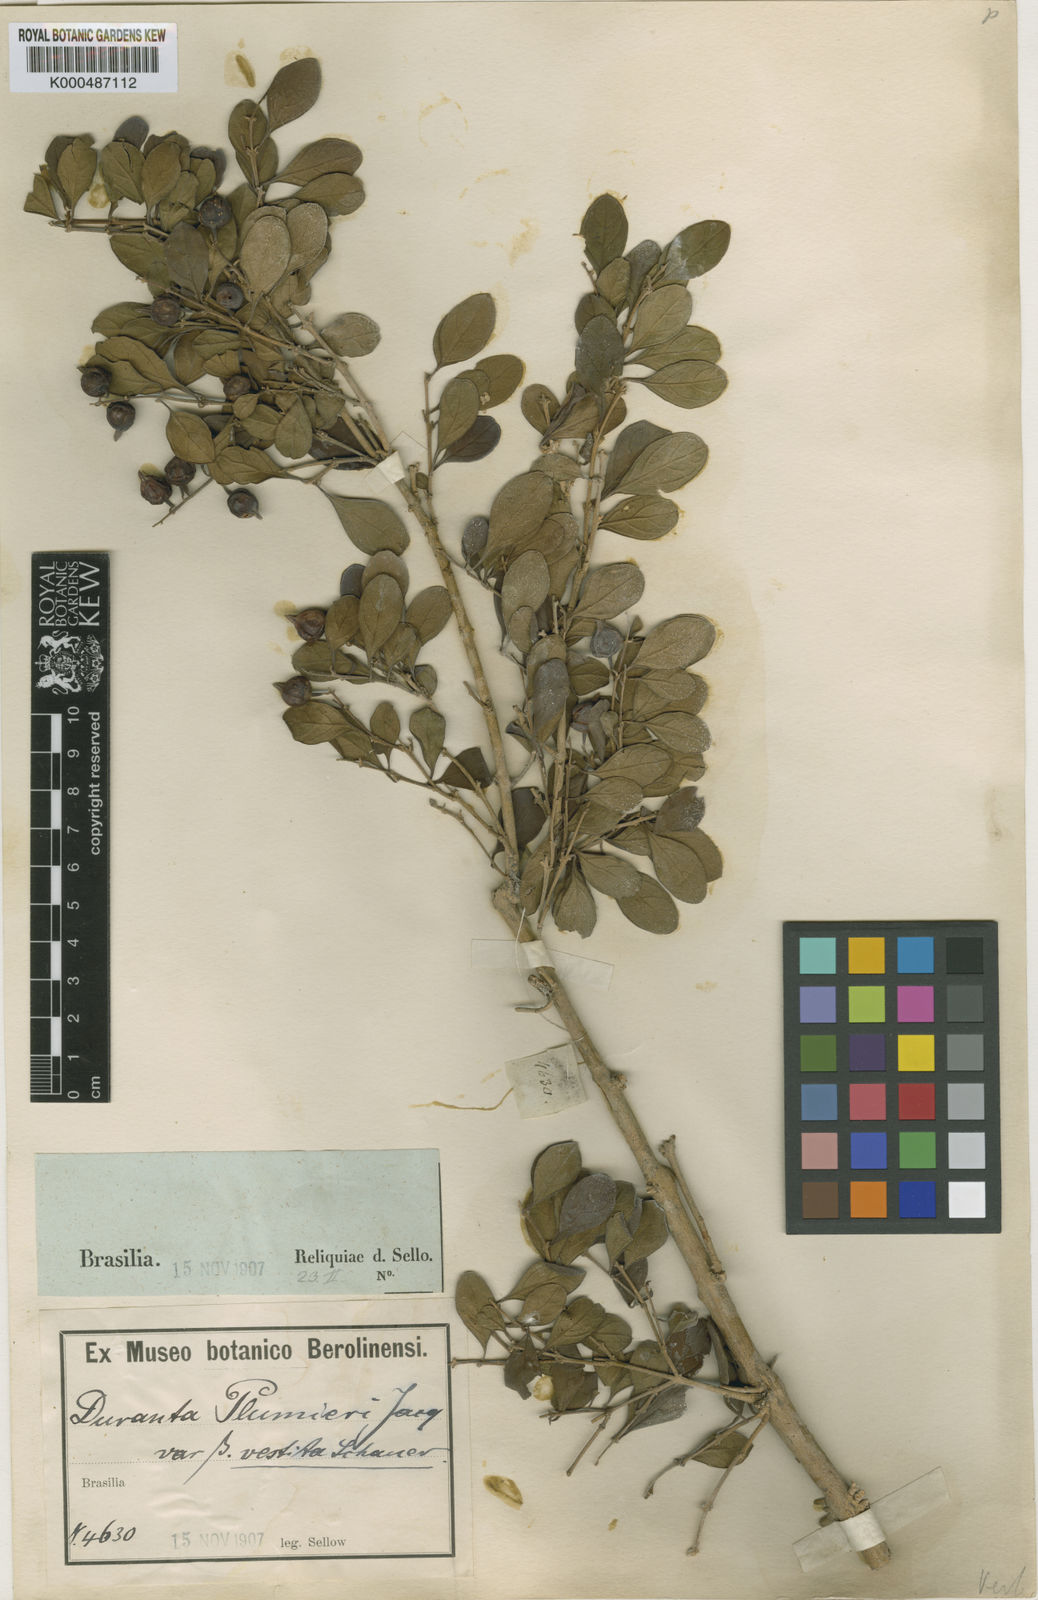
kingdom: Plantae
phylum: Tracheophyta
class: Magnoliopsida
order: Lamiales
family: Verbenaceae
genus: Duranta
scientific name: Duranta erecta
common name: Golden dewdrops
